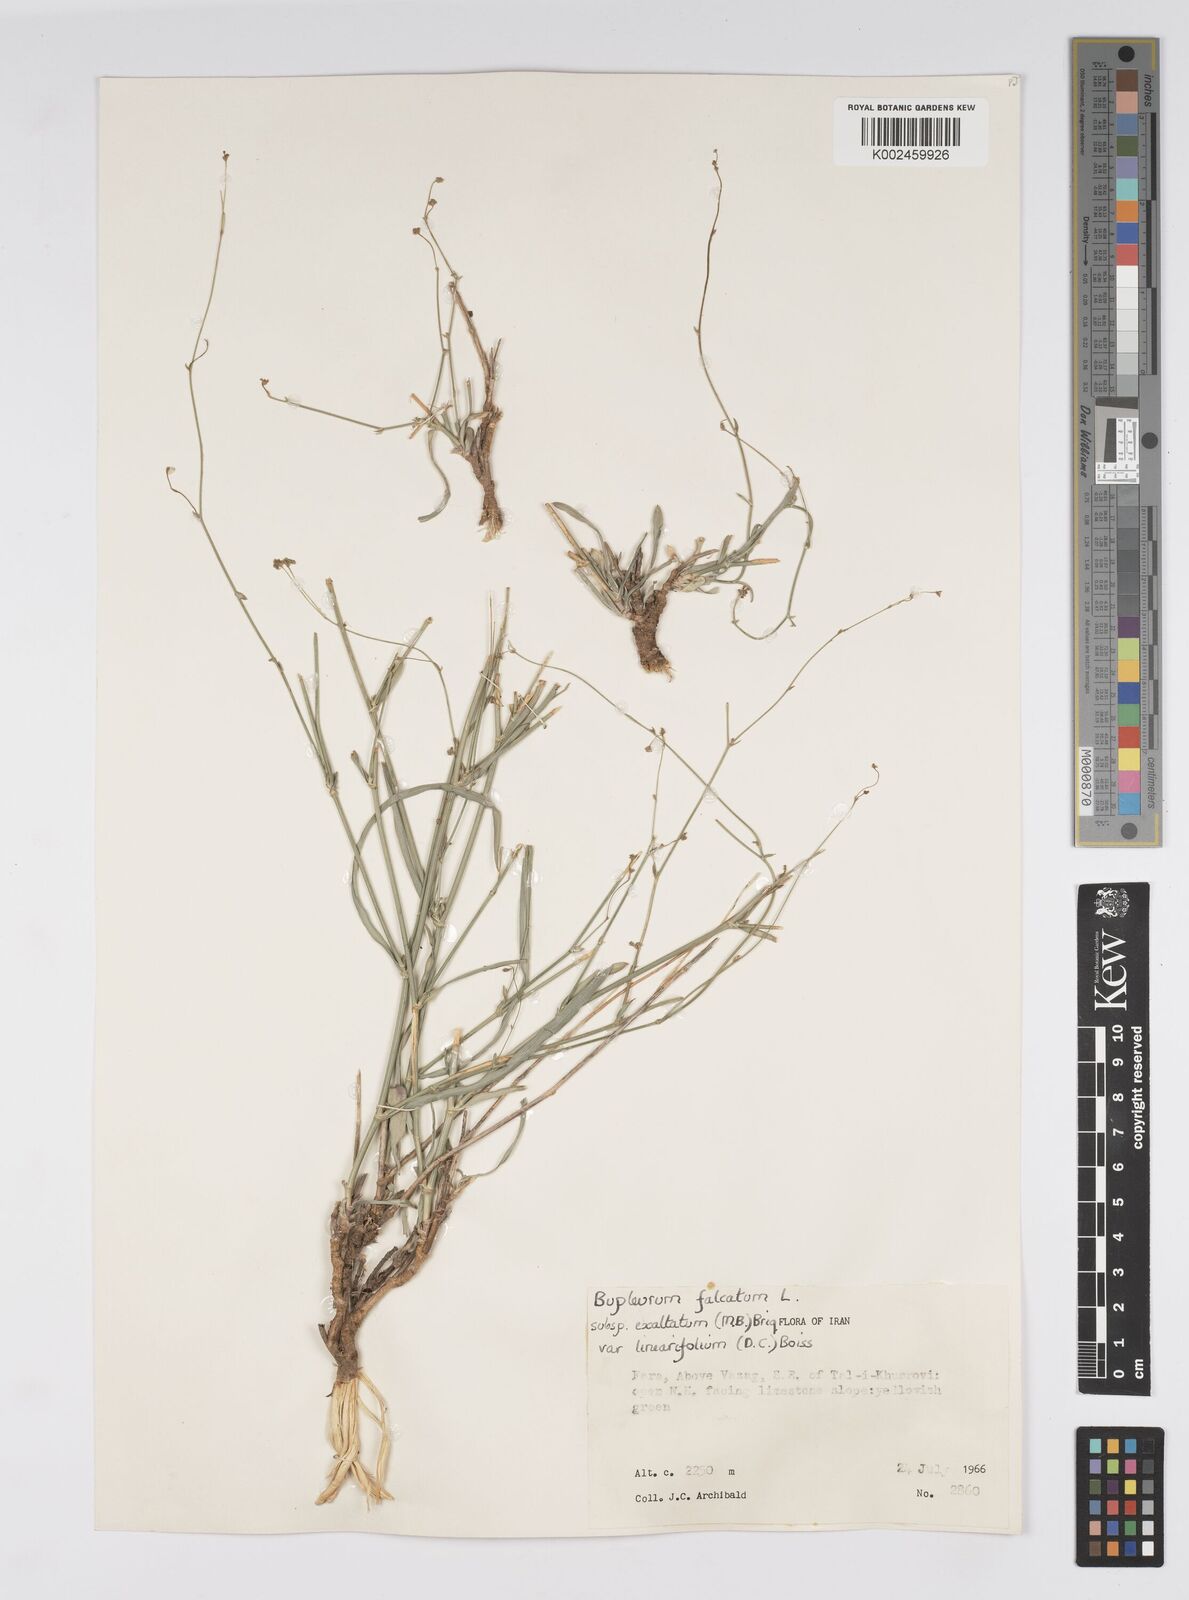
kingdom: Plantae
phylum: Tracheophyta
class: Magnoliopsida
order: Apiales
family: Apiaceae
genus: Bupleurum
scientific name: Bupleurum falcatum
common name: Sickle-leaved hare's-ear
